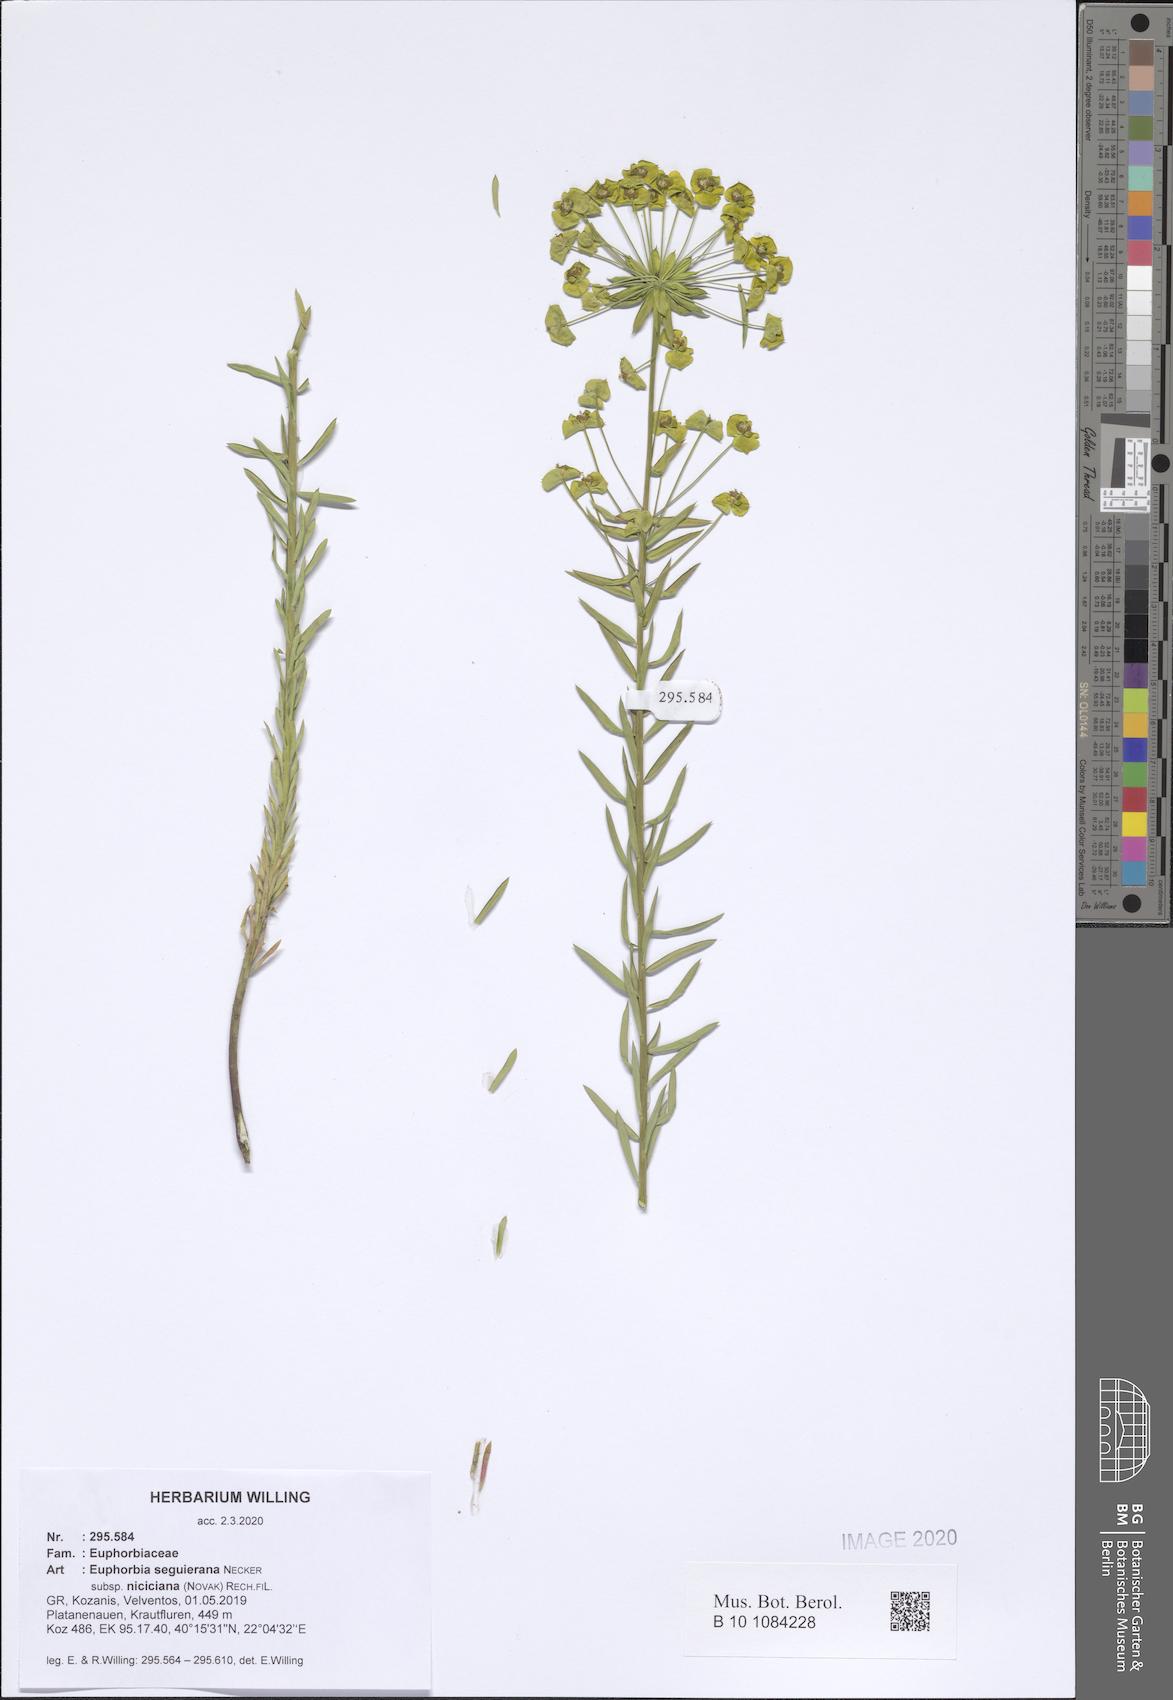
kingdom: Plantae
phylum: Tracheophyta
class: Magnoliopsida
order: Malpighiales
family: Euphorbiaceae
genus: Euphorbia
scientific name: Euphorbia seguieriana
